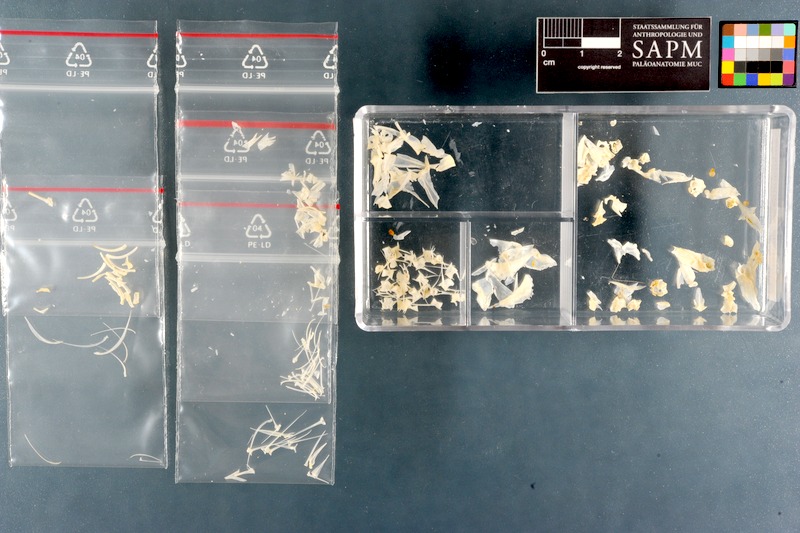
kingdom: Animalia
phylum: Chordata
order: Perciformes
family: Mullidae
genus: Upeneus
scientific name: Upeneus asymmetricus
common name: Asymmetrical goatfish
